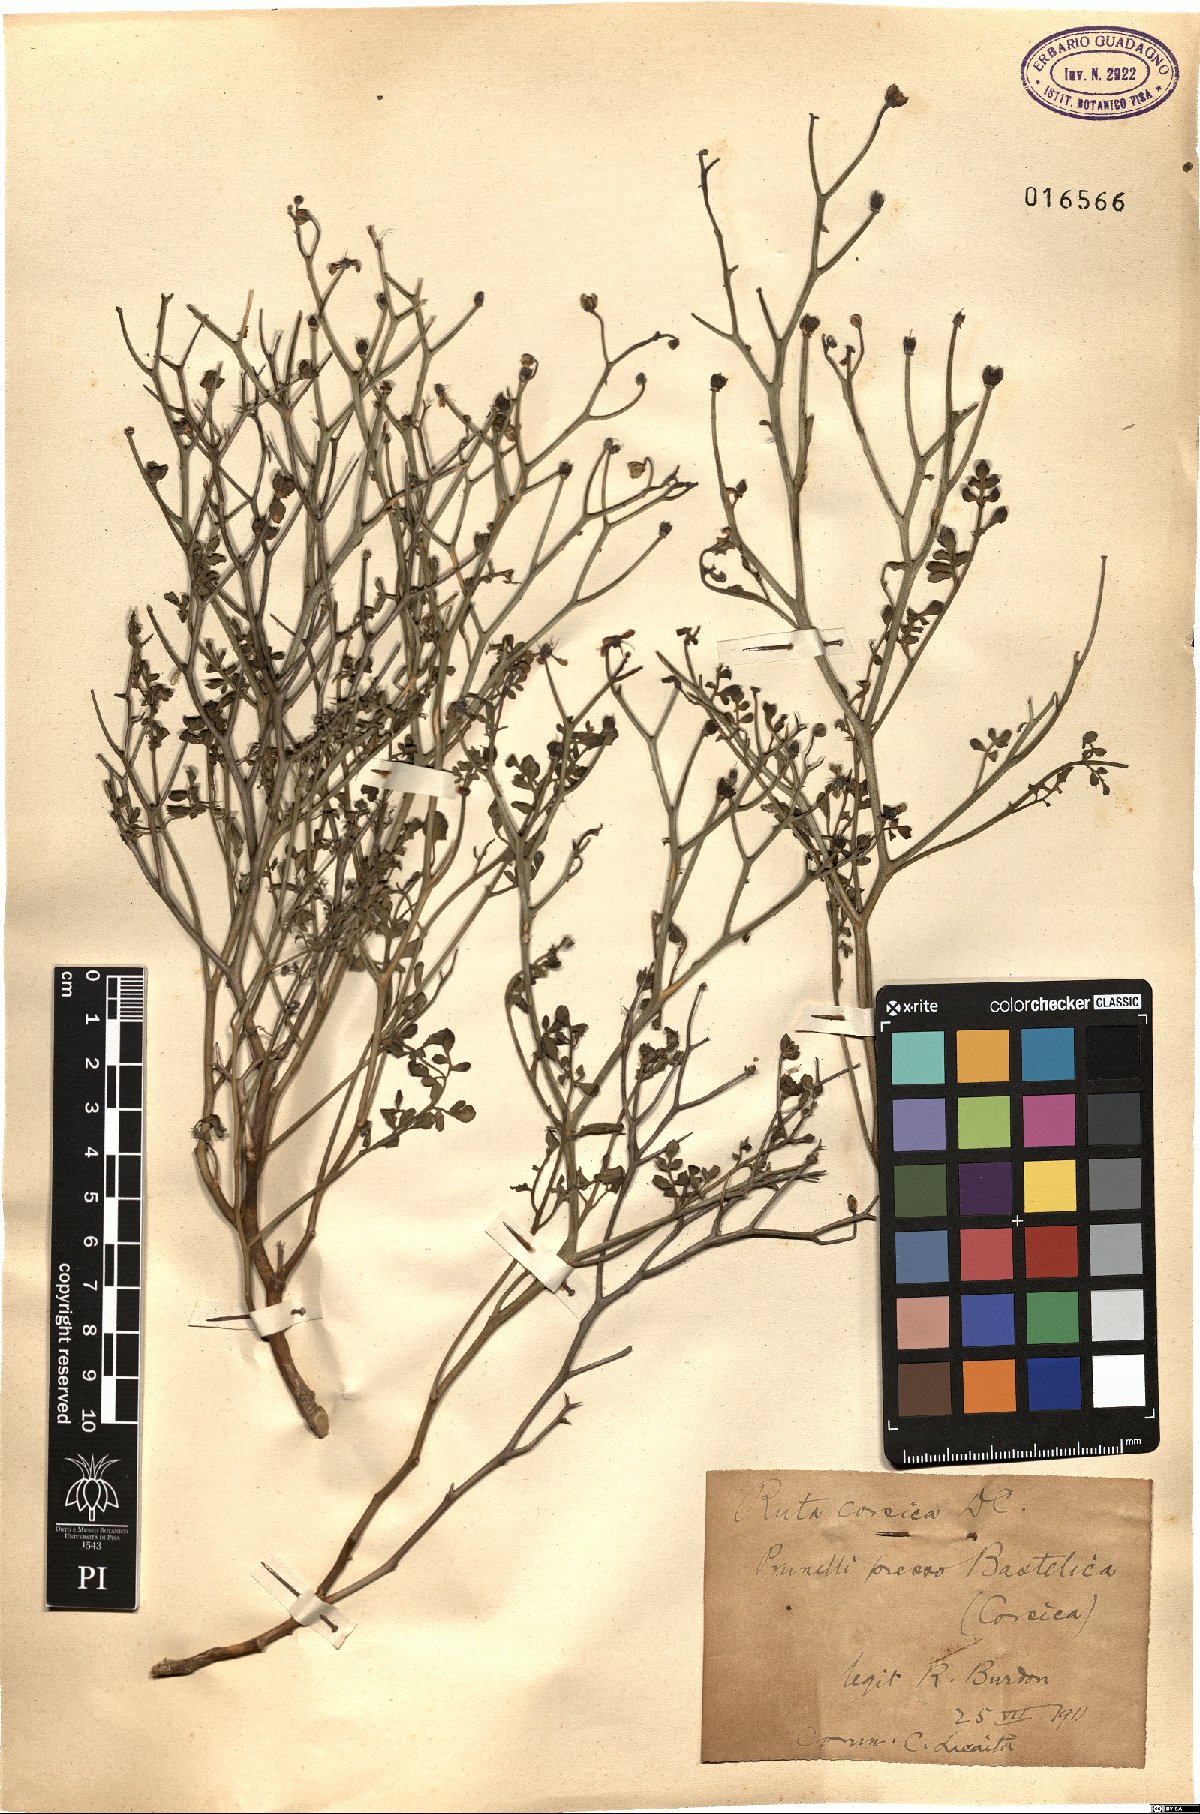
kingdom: Plantae
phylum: Tracheophyta
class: Magnoliopsida
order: Sapindales
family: Rutaceae
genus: Ruta
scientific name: Ruta corsica
